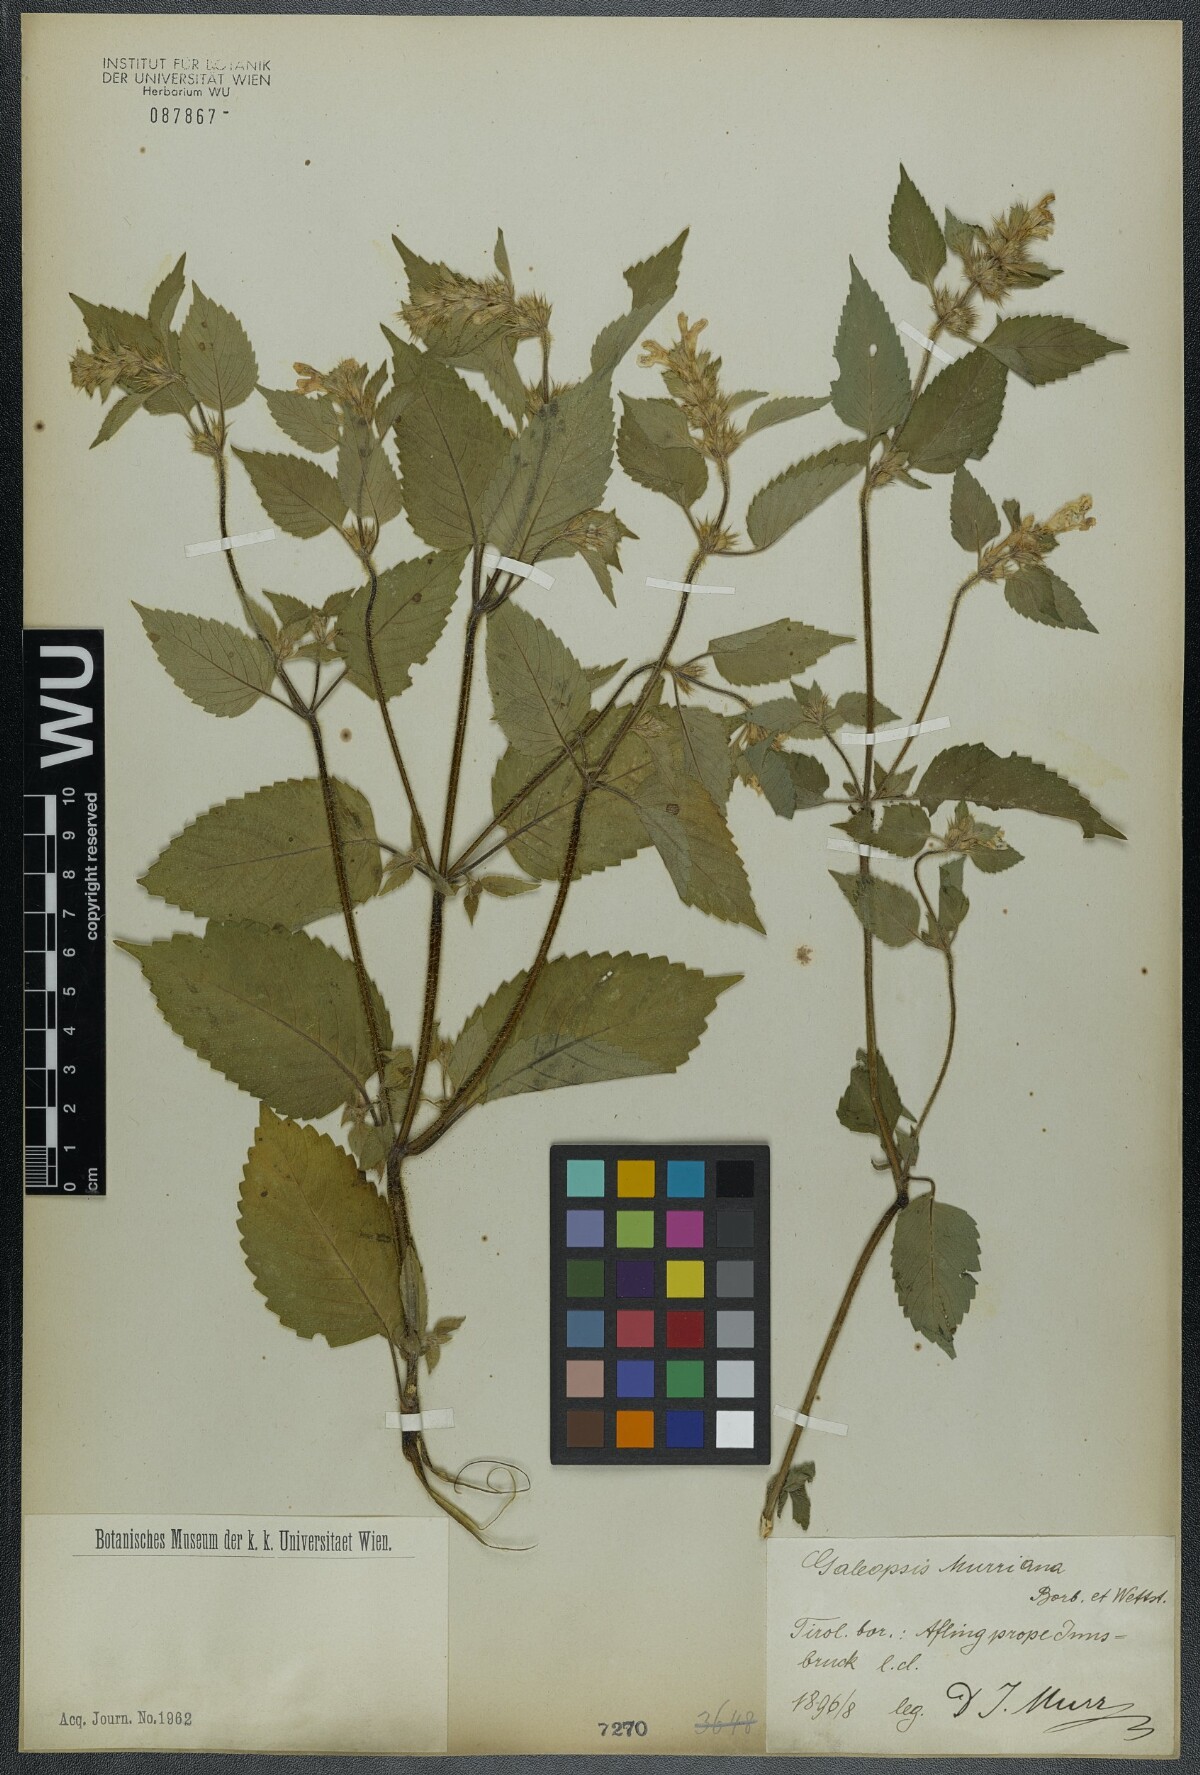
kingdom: Plantae
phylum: Tracheophyta
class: Magnoliopsida
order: Lamiales
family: Lamiaceae
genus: Galeopsis
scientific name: Galeopsis pubescens
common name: Downy hemp-nettle
